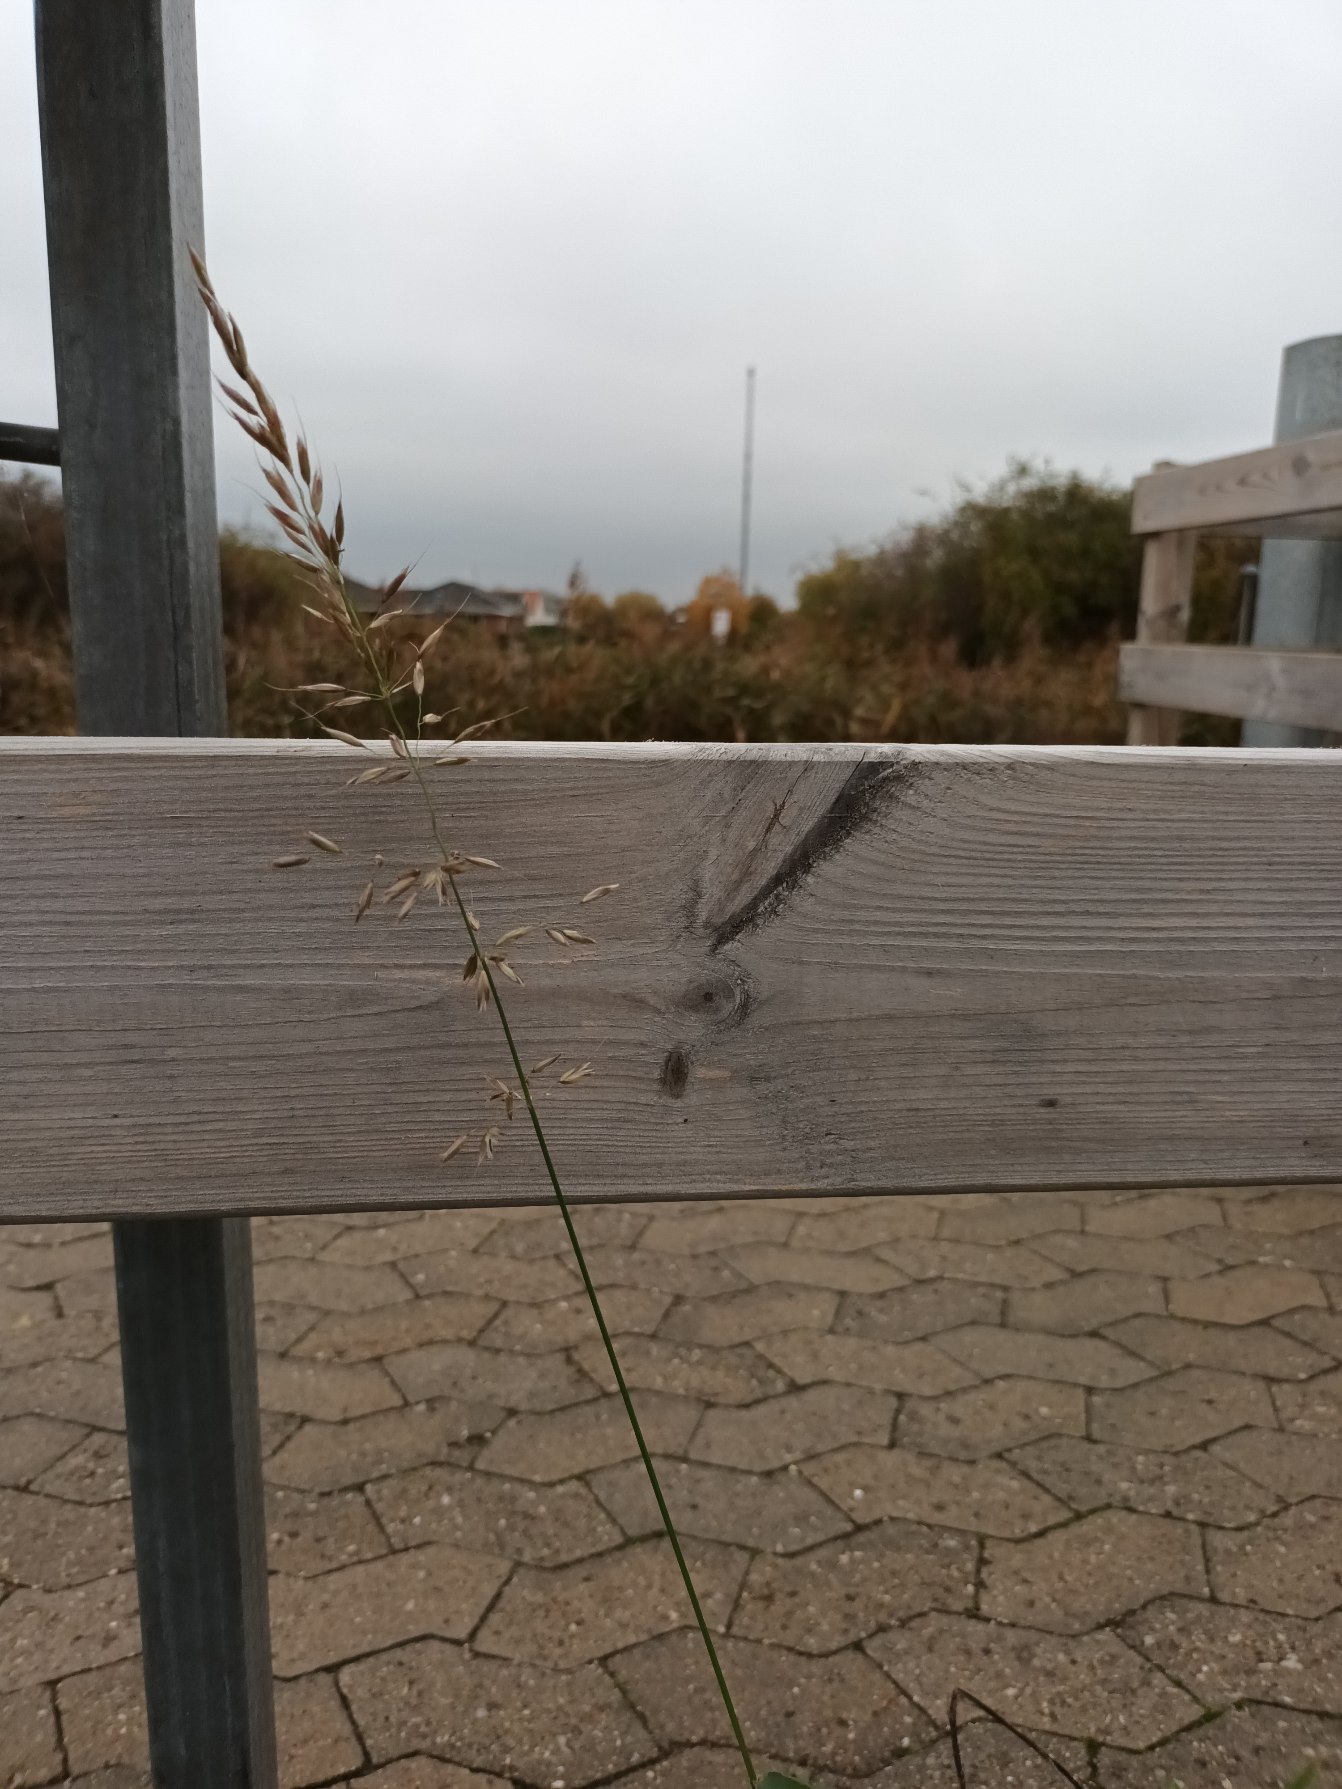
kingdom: Plantae
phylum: Tracheophyta
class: Liliopsida
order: Poales
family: Poaceae
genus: Arrhenatherum
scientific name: Arrhenatherum elatius
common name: Draphavre
